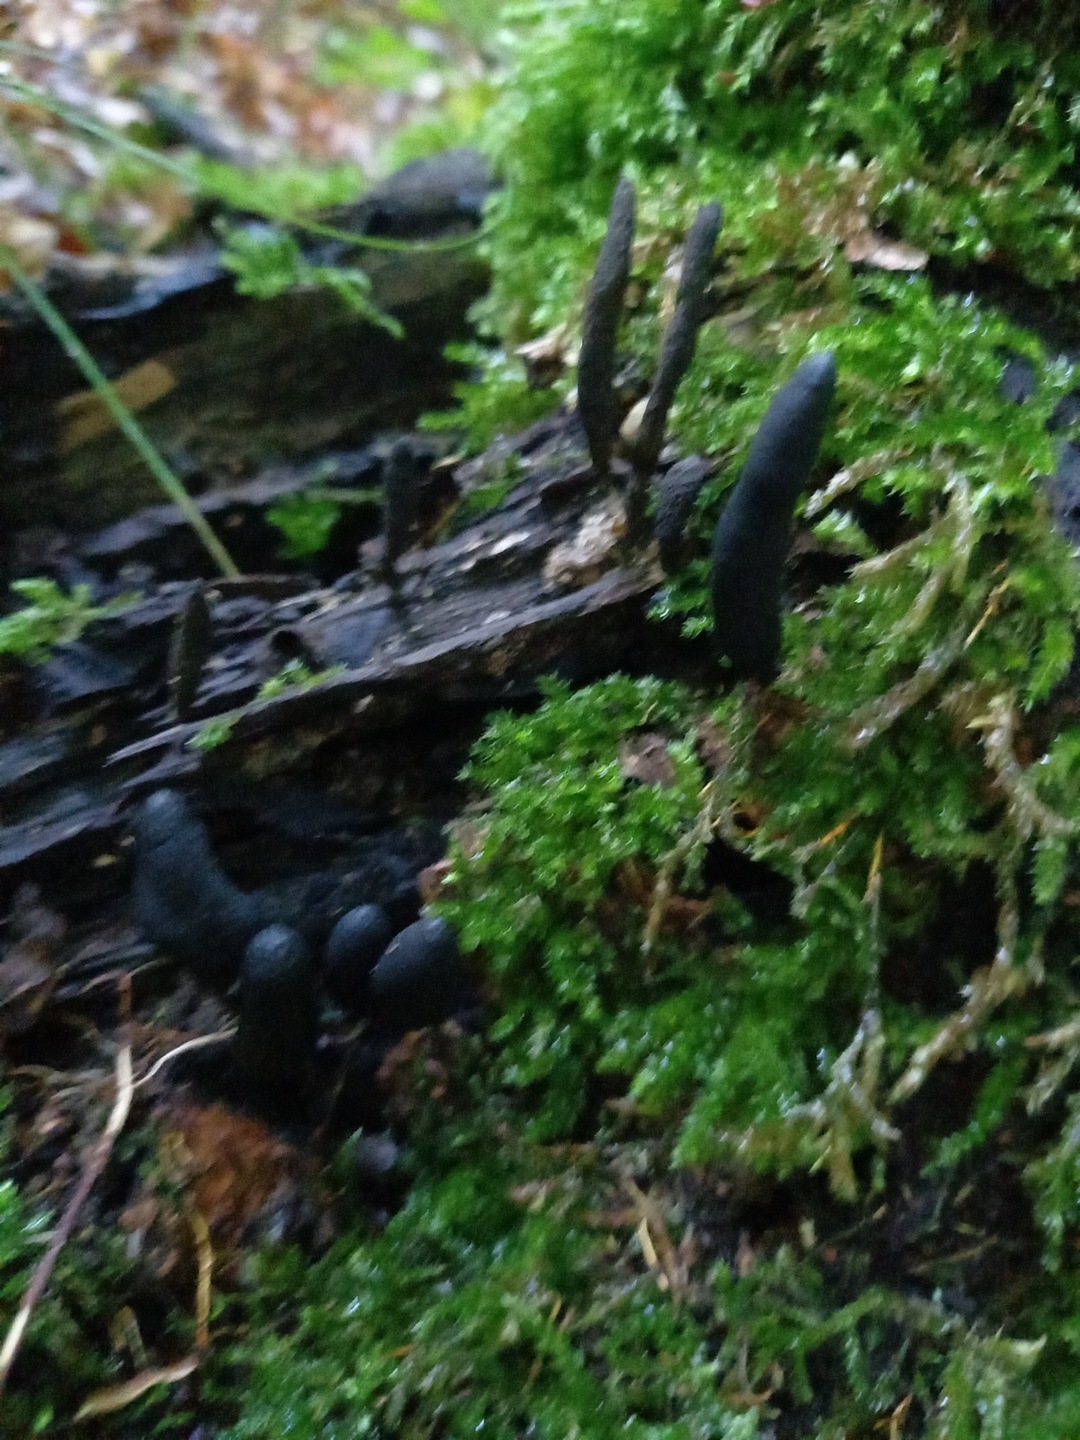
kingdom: Fungi
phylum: Ascomycota
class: Sordariomycetes
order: Xylariales
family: Xylariaceae
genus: Xylaria
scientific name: Xylaria longipes
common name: slank stødsvamp
